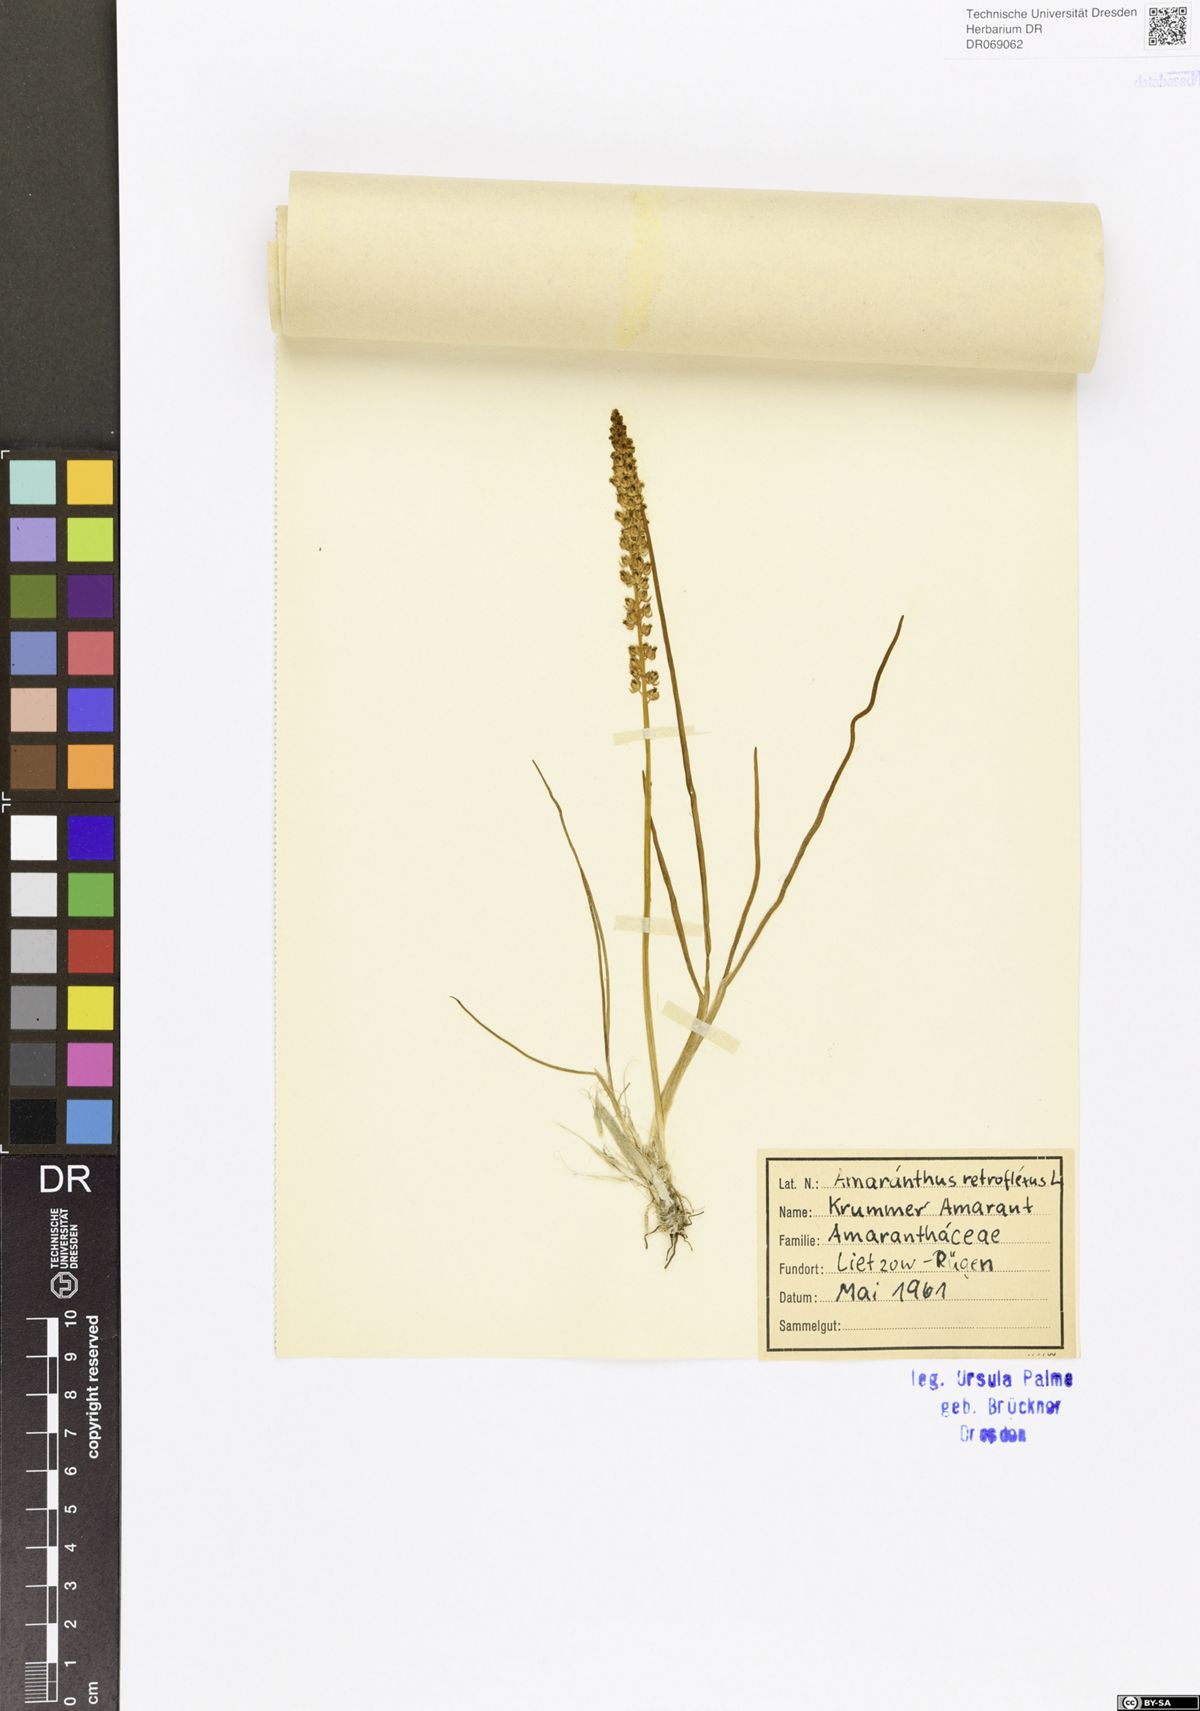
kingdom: Plantae
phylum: Tracheophyta
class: Magnoliopsida
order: Caryophyllales
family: Amaranthaceae
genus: Amaranthus
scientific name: Amaranthus retroflexus
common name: Redroot amaranth
